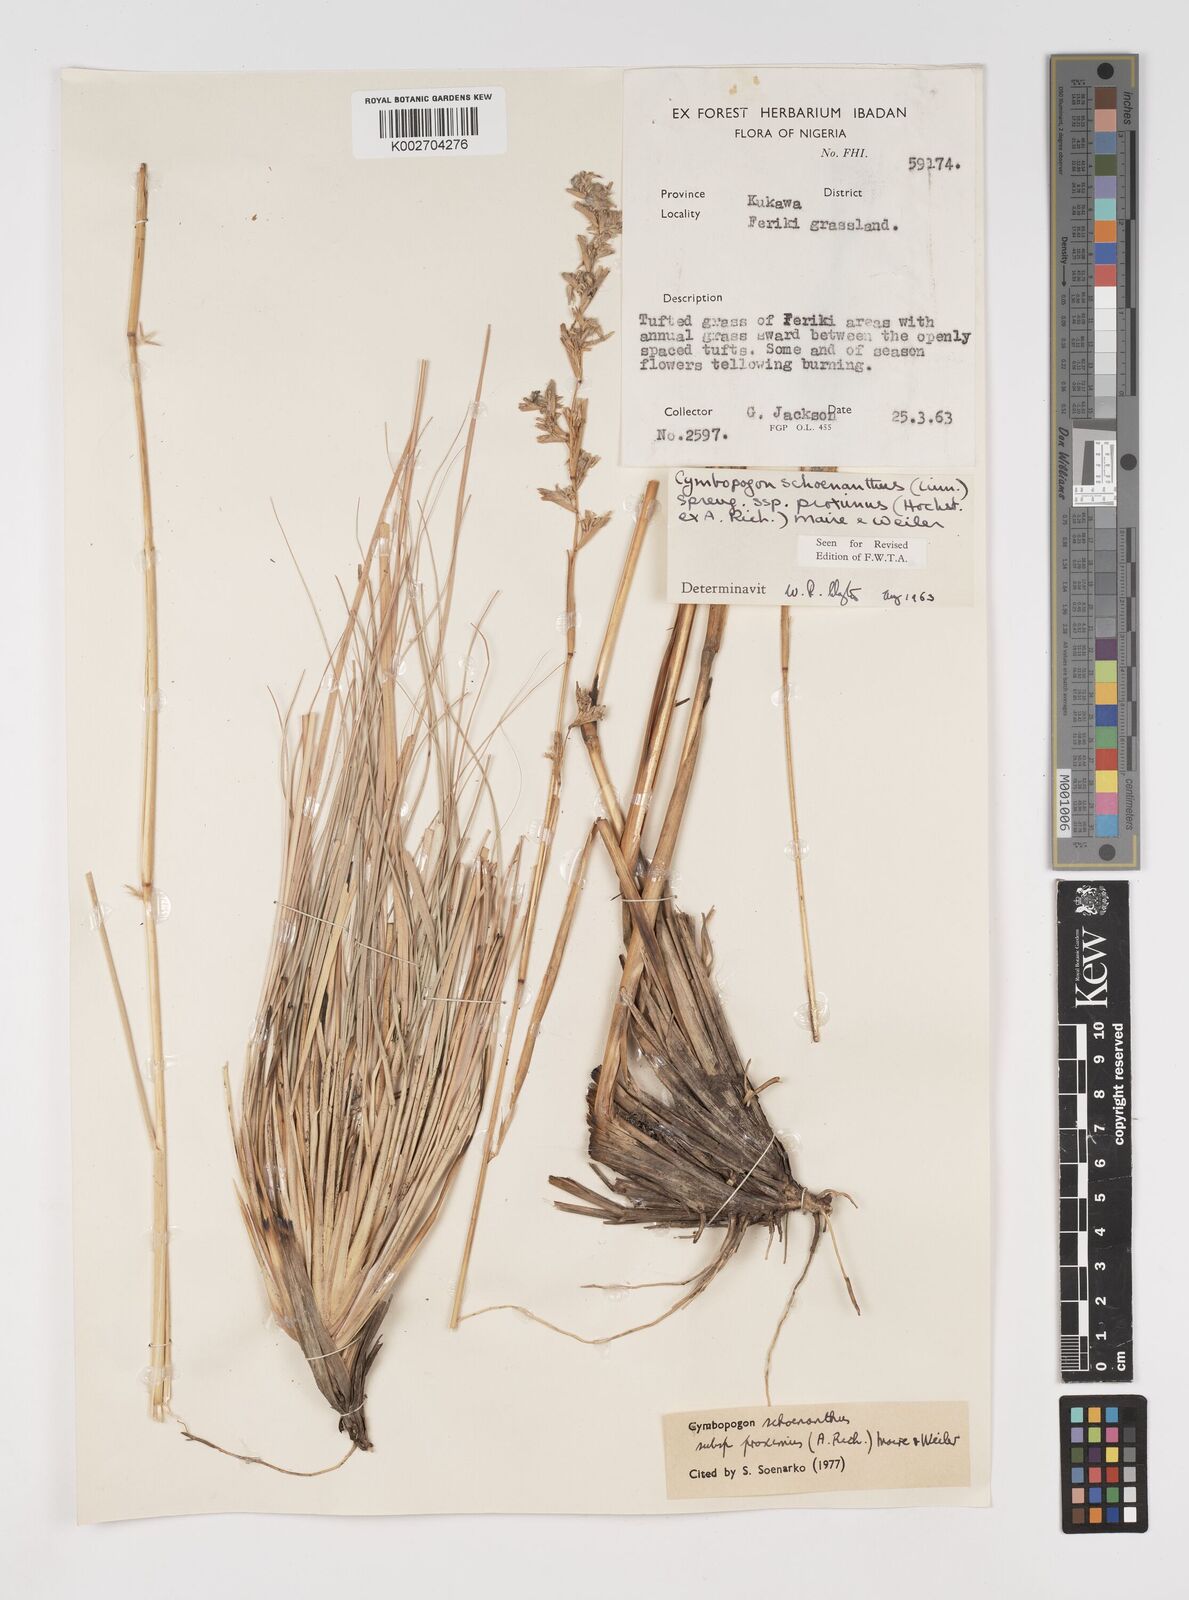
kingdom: Plantae
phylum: Tracheophyta
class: Liliopsida
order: Poales
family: Poaceae
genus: Cymbopogon
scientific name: Cymbopogon schoenanthus
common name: Geranium grass
